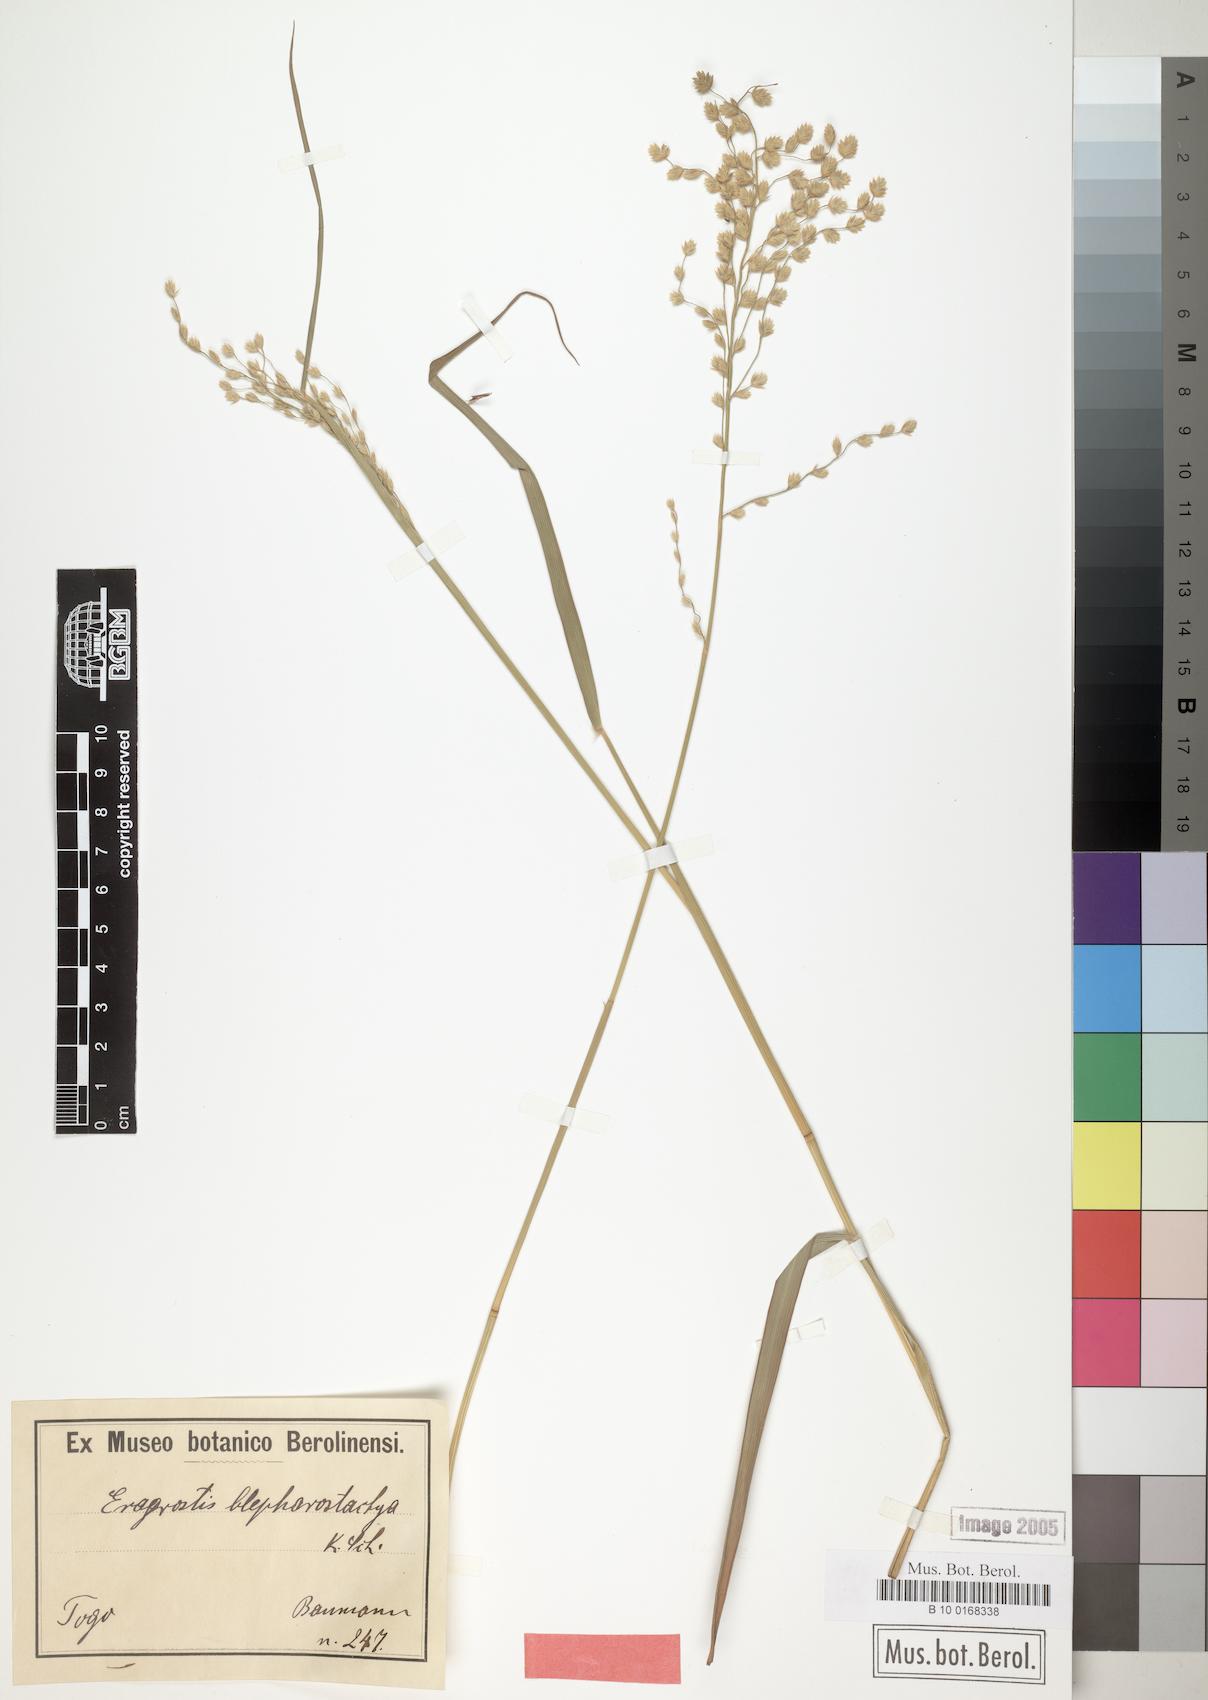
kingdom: Plantae
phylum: Tracheophyta
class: Liliopsida
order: Poales
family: Poaceae
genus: Eragrostis
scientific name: Eragrostis blepharostachya
